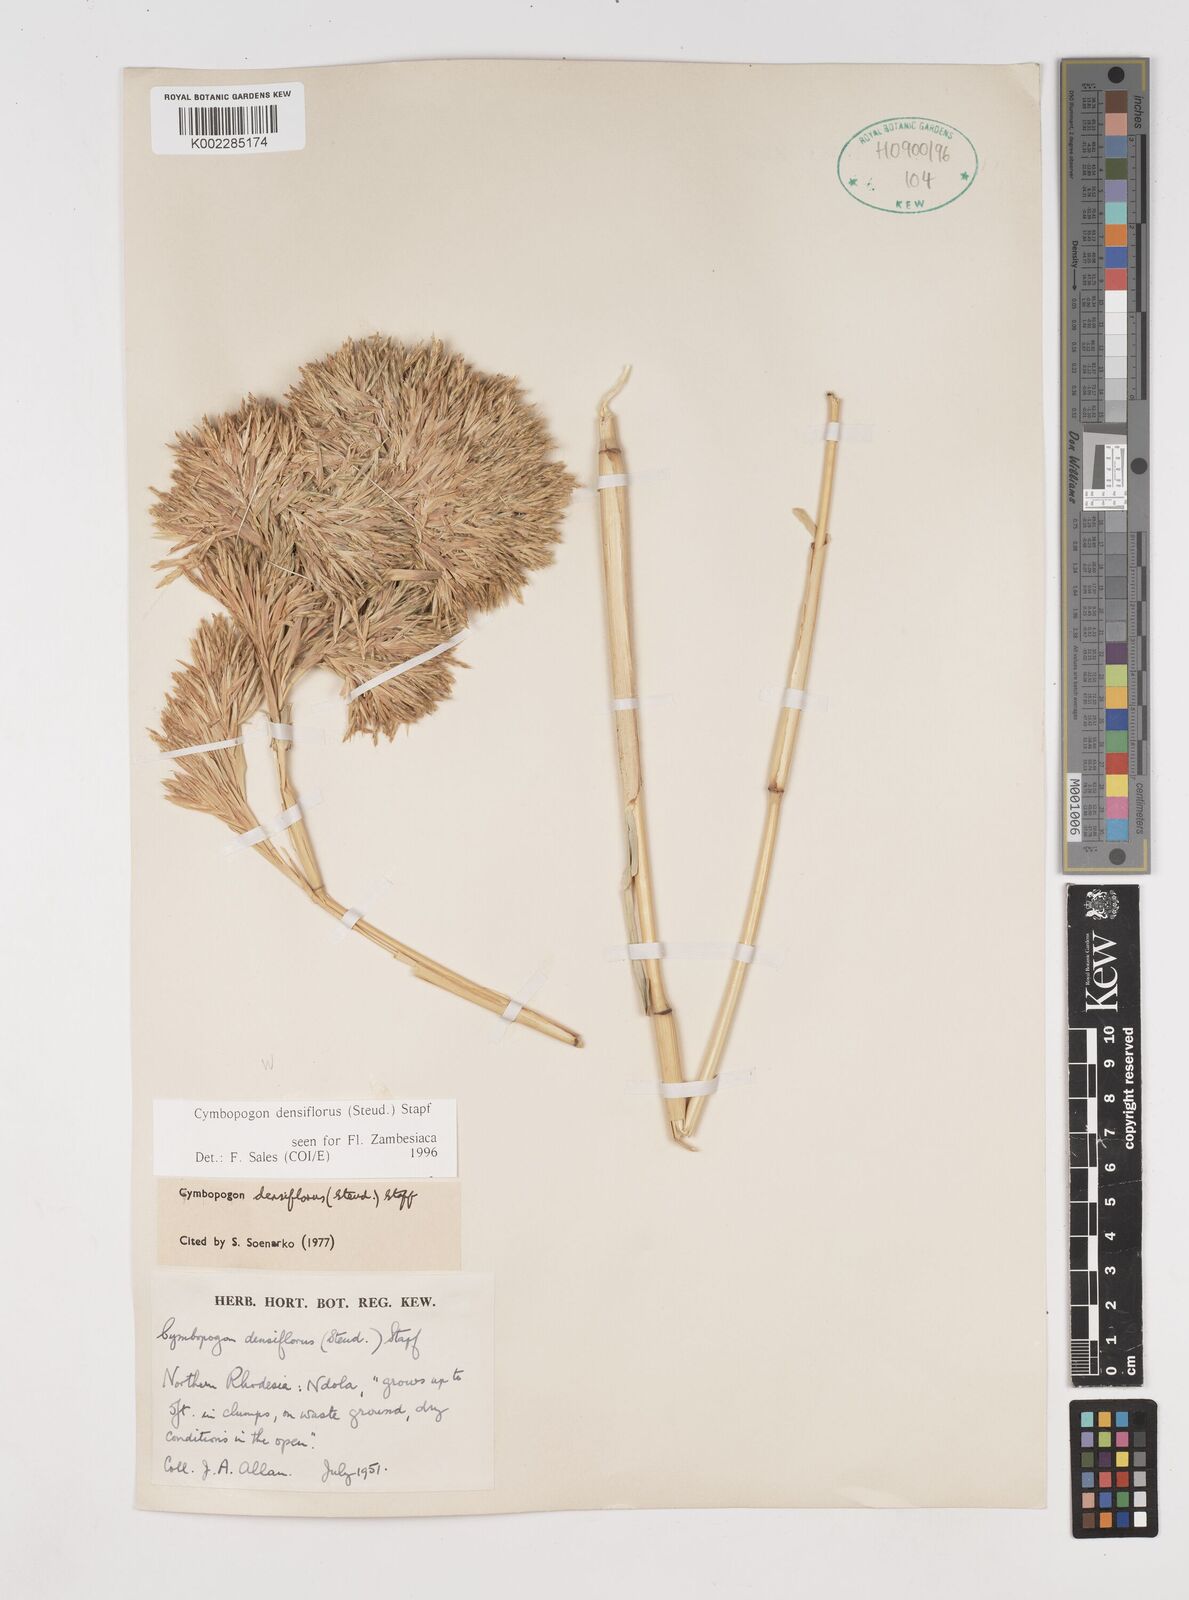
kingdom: Plantae
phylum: Tracheophyta
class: Liliopsida
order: Poales
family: Poaceae
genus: Cymbopogon
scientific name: Cymbopogon densiflorus
